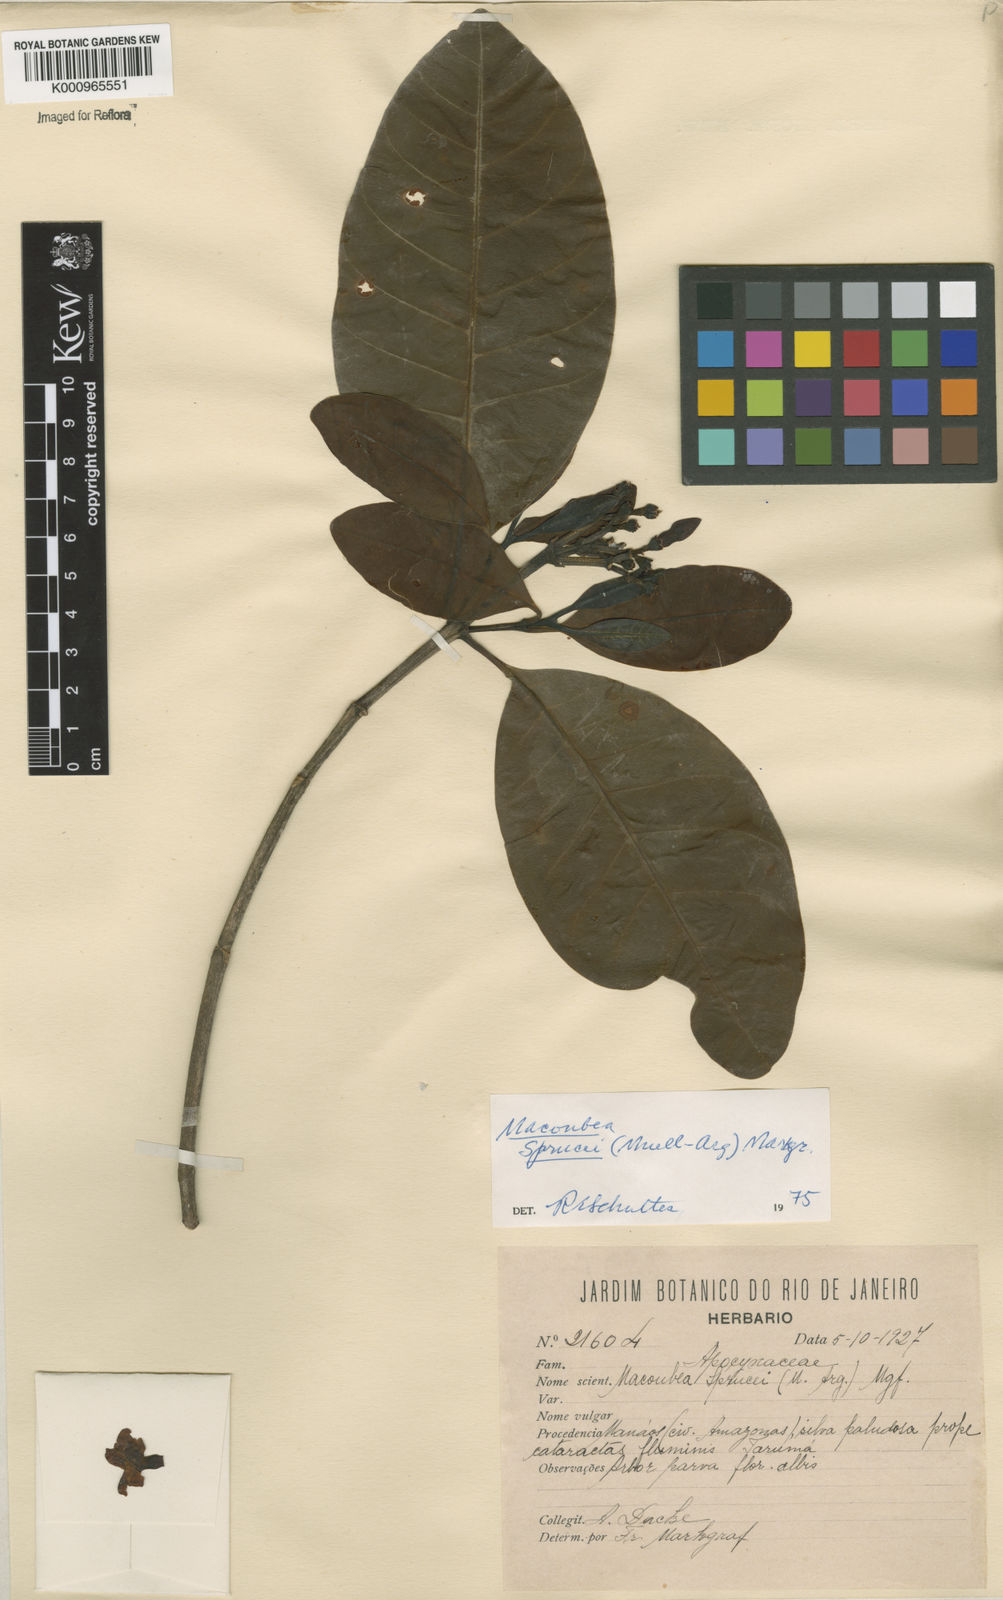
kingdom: Plantae
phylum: Tracheophyta
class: Magnoliopsida
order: Gentianales
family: Apocynaceae
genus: Macoubea
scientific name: Macoubea
